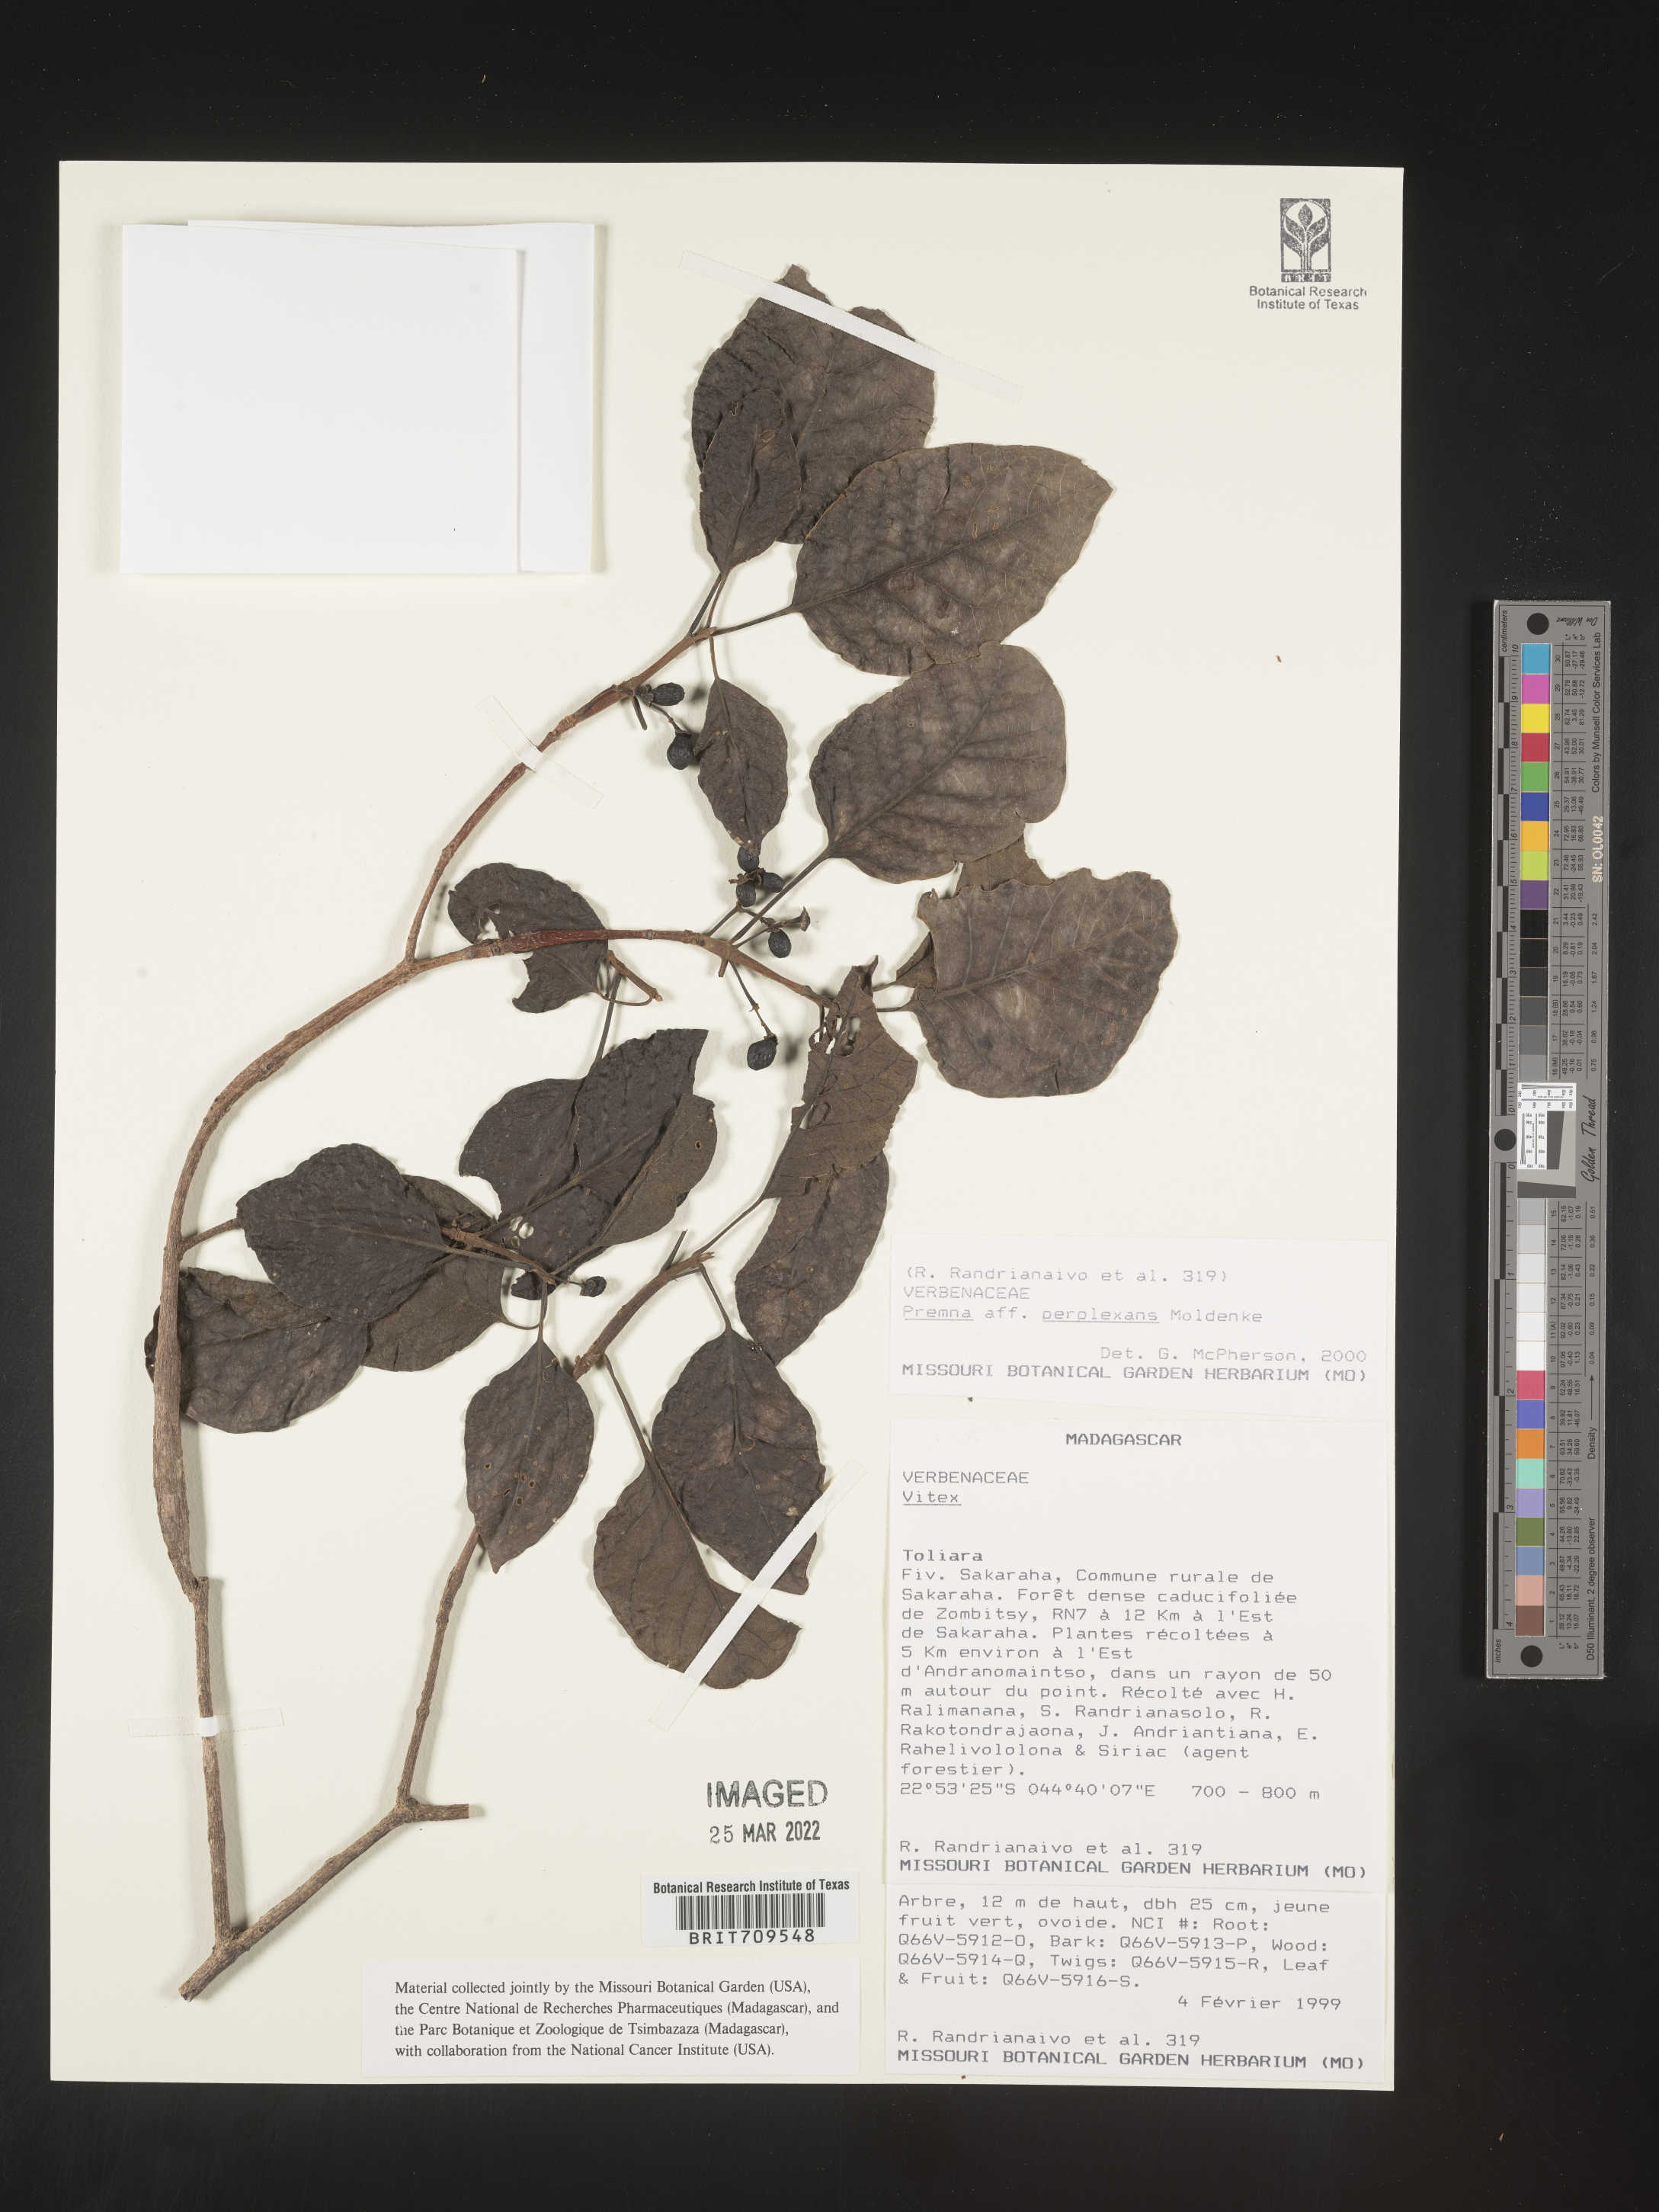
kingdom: Plantae
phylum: Tracheophyta
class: Magnoliopsida
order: Lamiales
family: Lamiaceae
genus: Premna
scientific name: Premna
